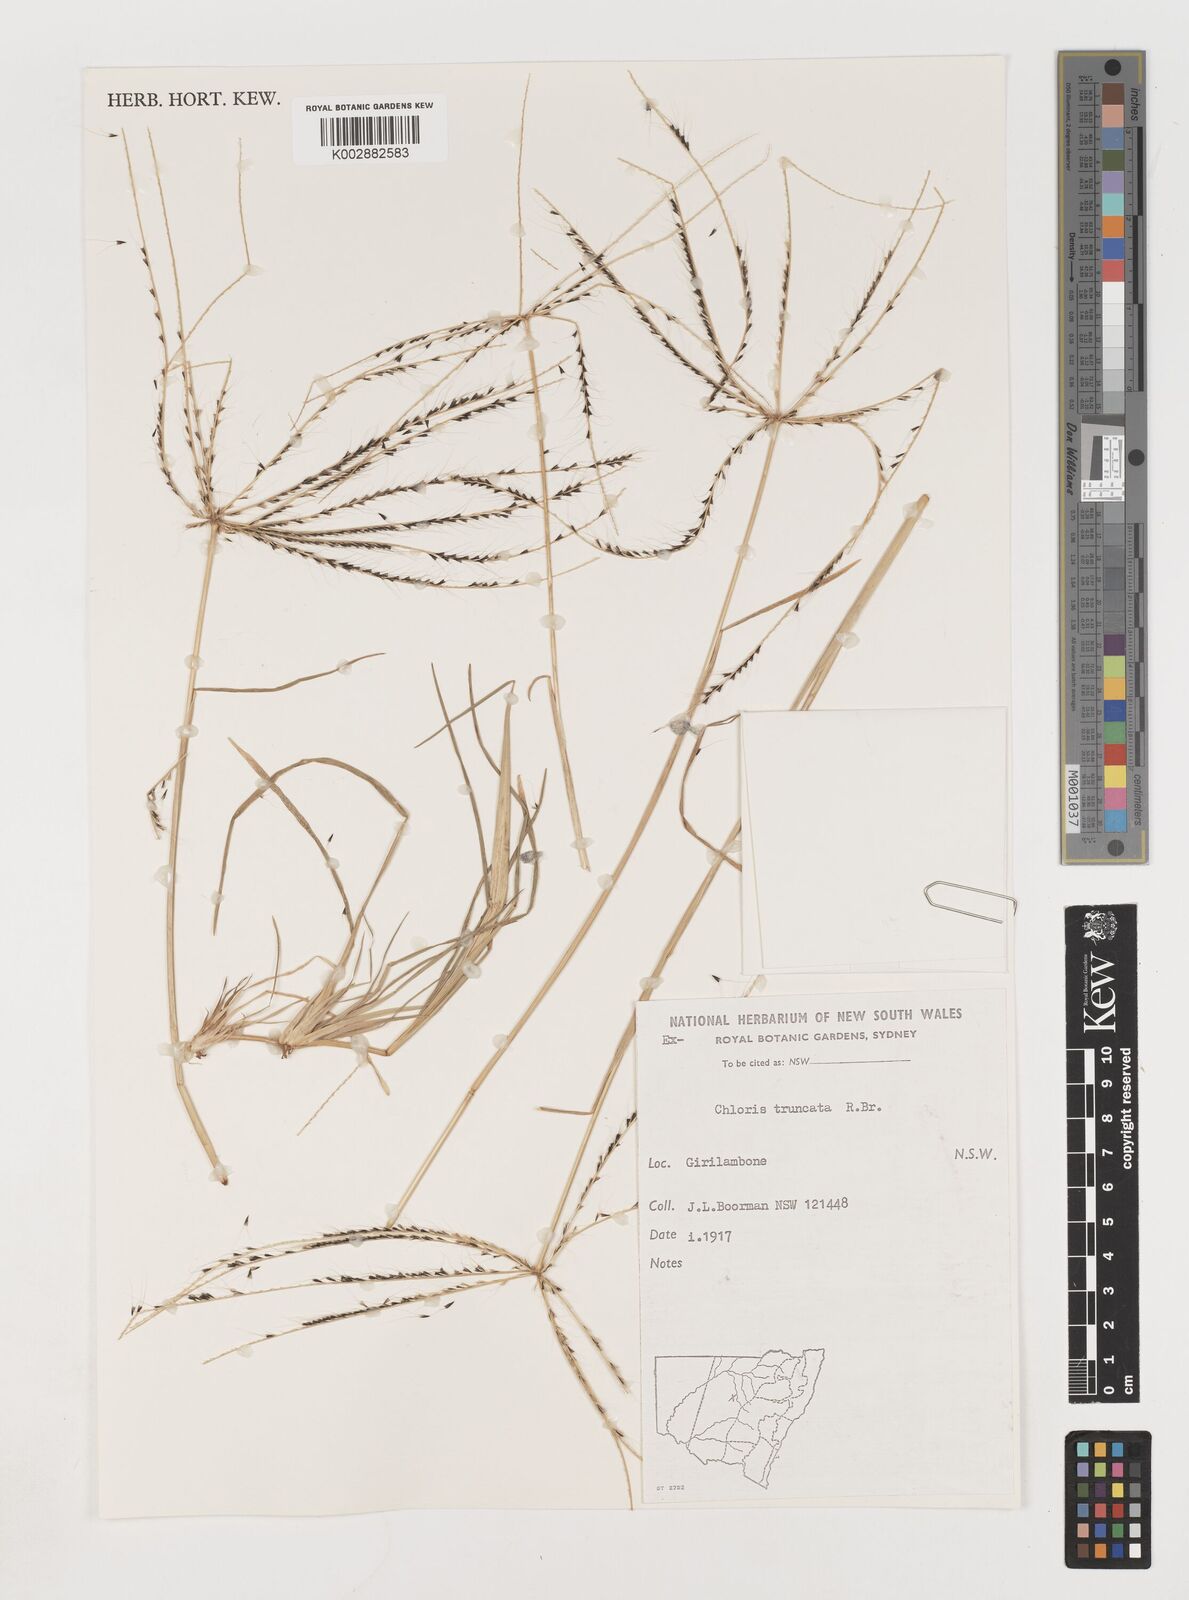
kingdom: Plantae
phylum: Tracheophyta
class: Liliopsida
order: Poales
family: Poaceae
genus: Chloris
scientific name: Chloris truncata
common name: Windmill-grass
